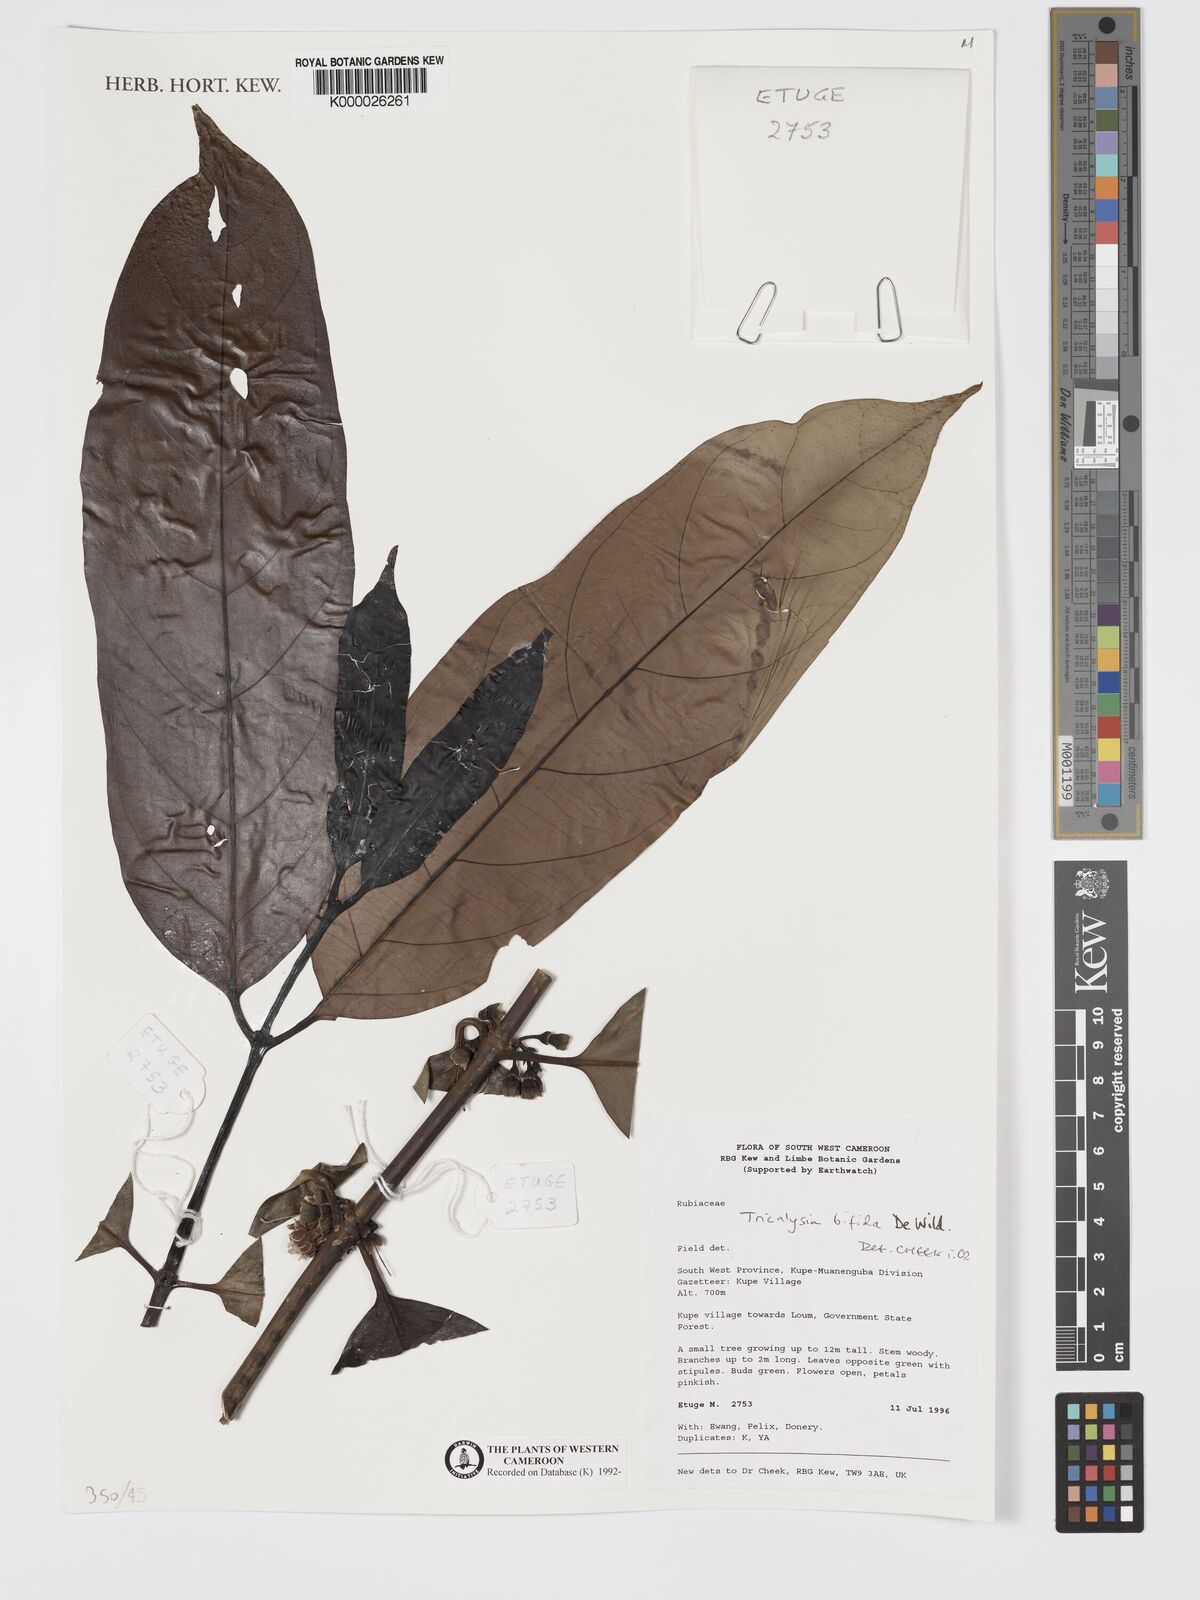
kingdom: Plantae
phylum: Tracheophyta
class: Magnoliopsida
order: Gentianales
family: Rubiaceae
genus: Tricalysia
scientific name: Tricalysia bifida
